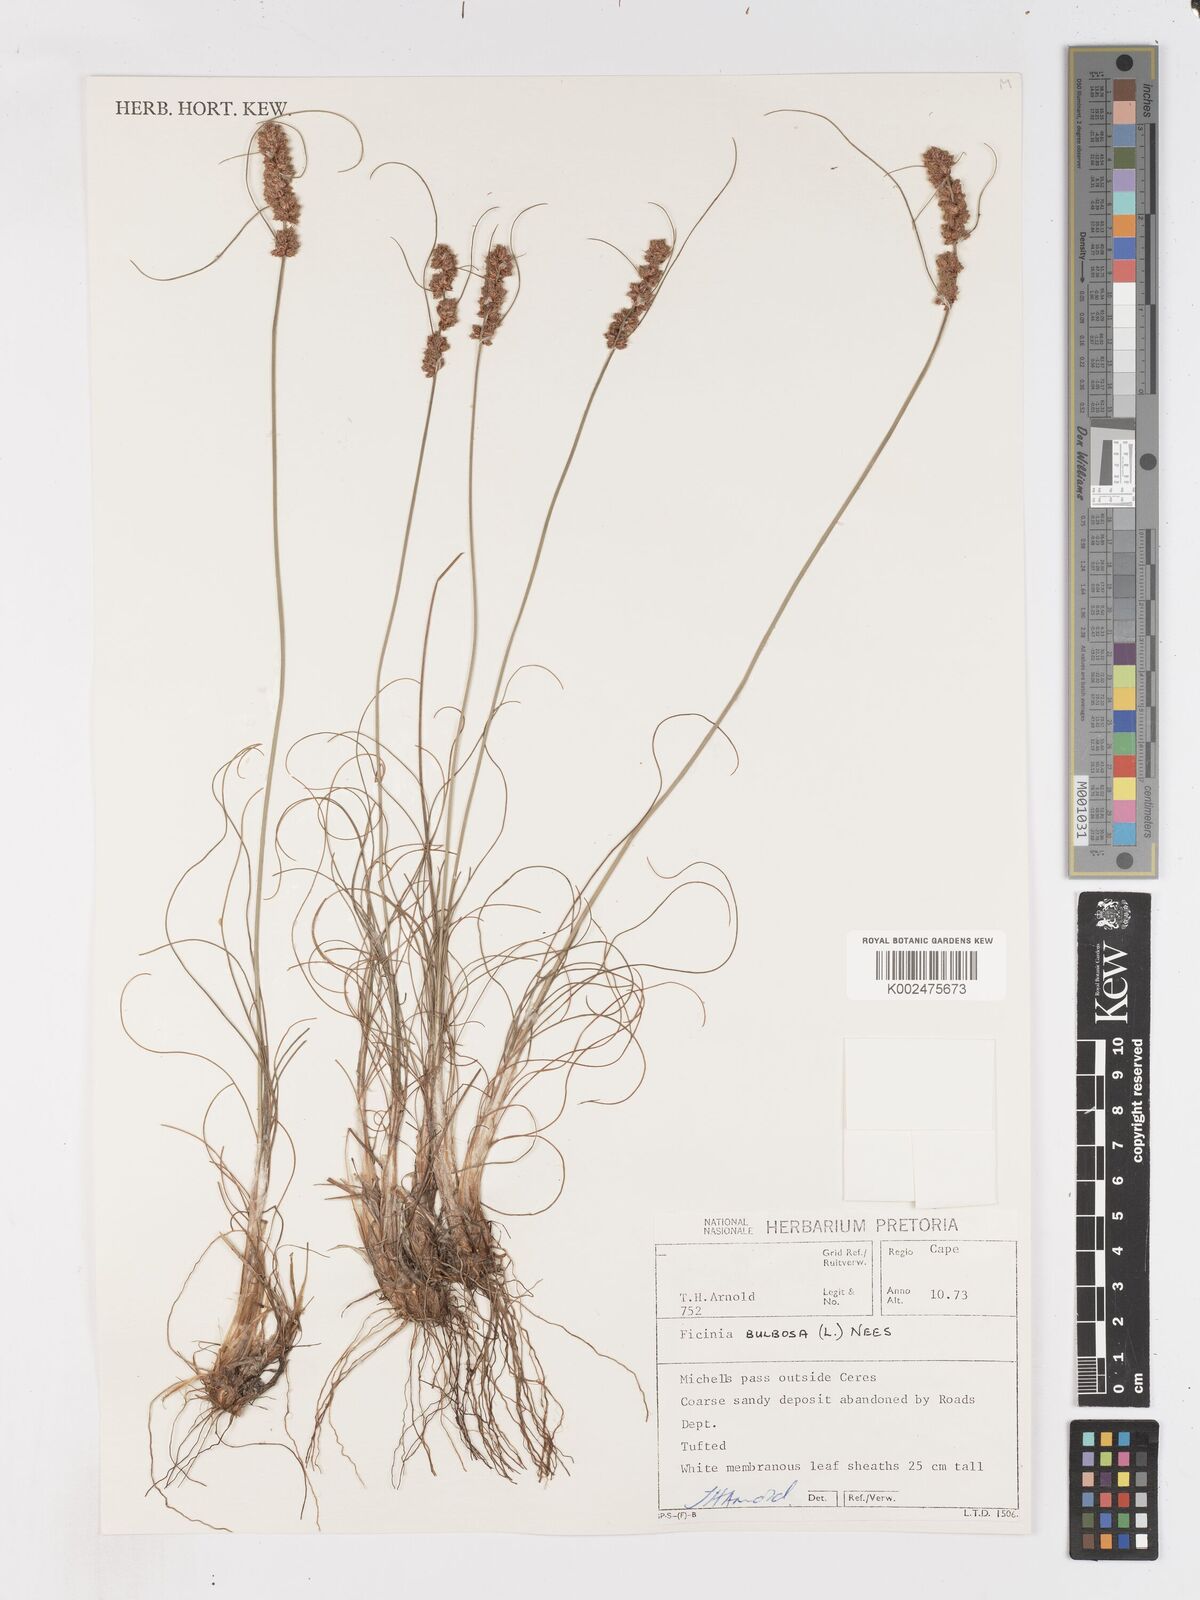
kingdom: Plantae
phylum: Tracheophyta
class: Liliopsida
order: Poales
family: Cyperaceae
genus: Ficinia
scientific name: Ficinia bulbosa
